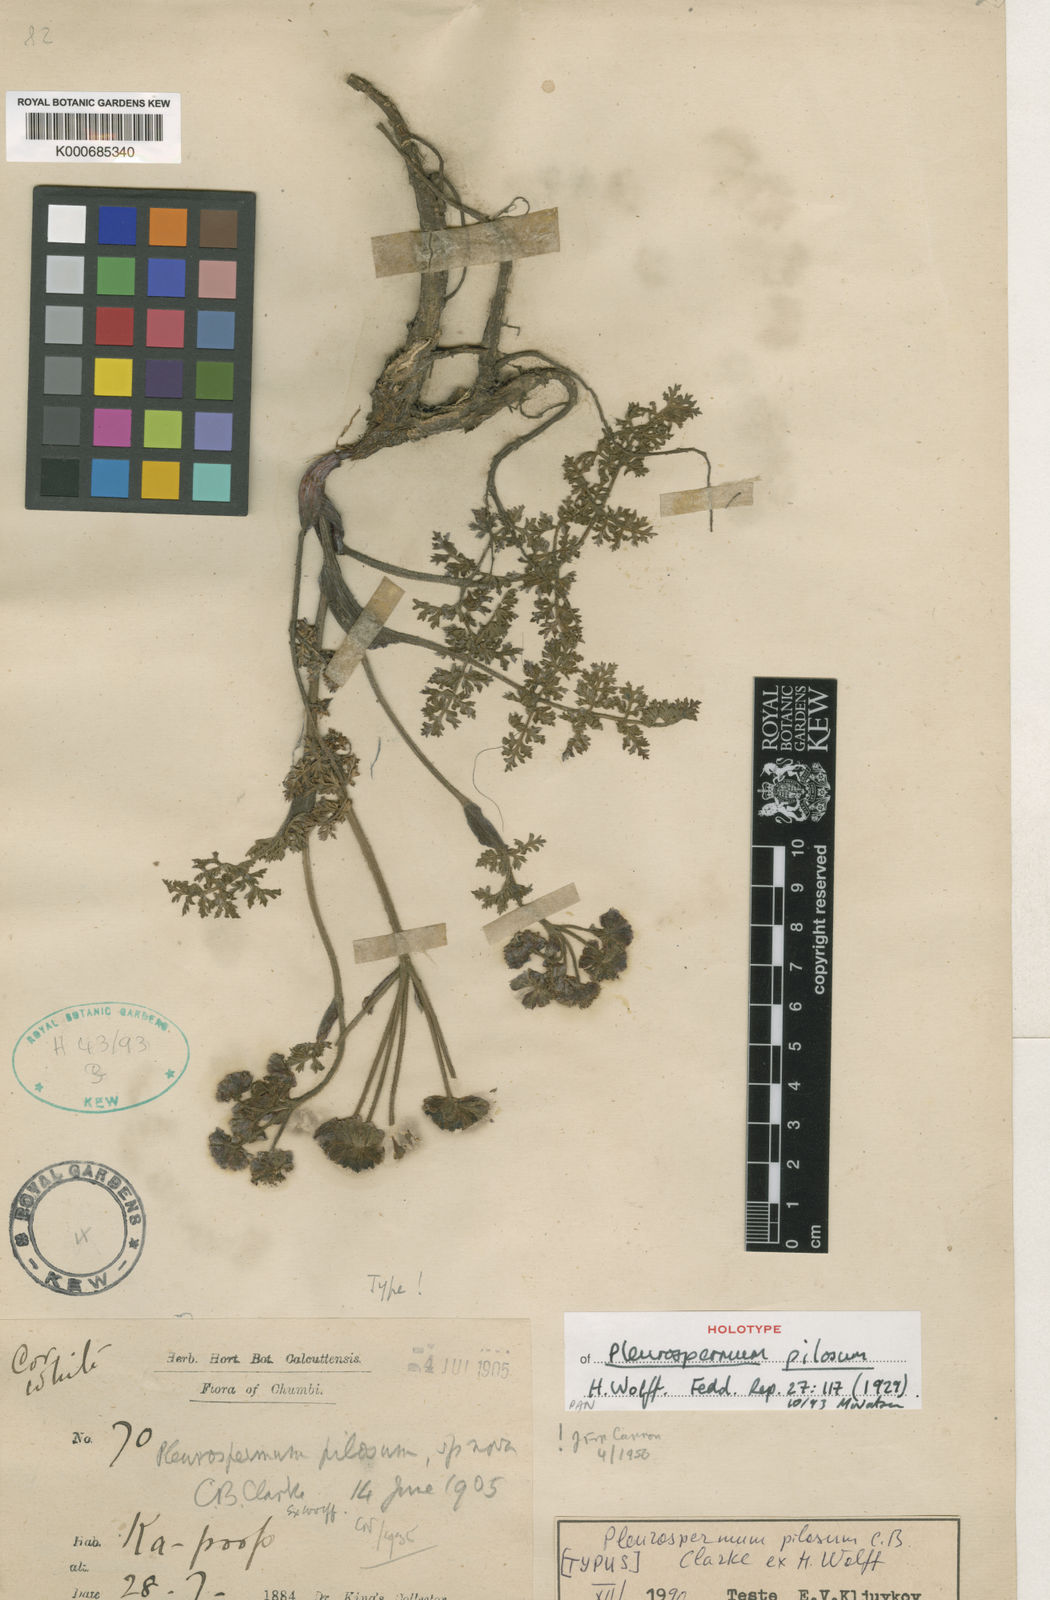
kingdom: Plantae
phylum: Tracheophyta
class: Magnoliopsida
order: Apiales
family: Apiaceae
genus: Hymenidium
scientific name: Hymenidium pilosum
